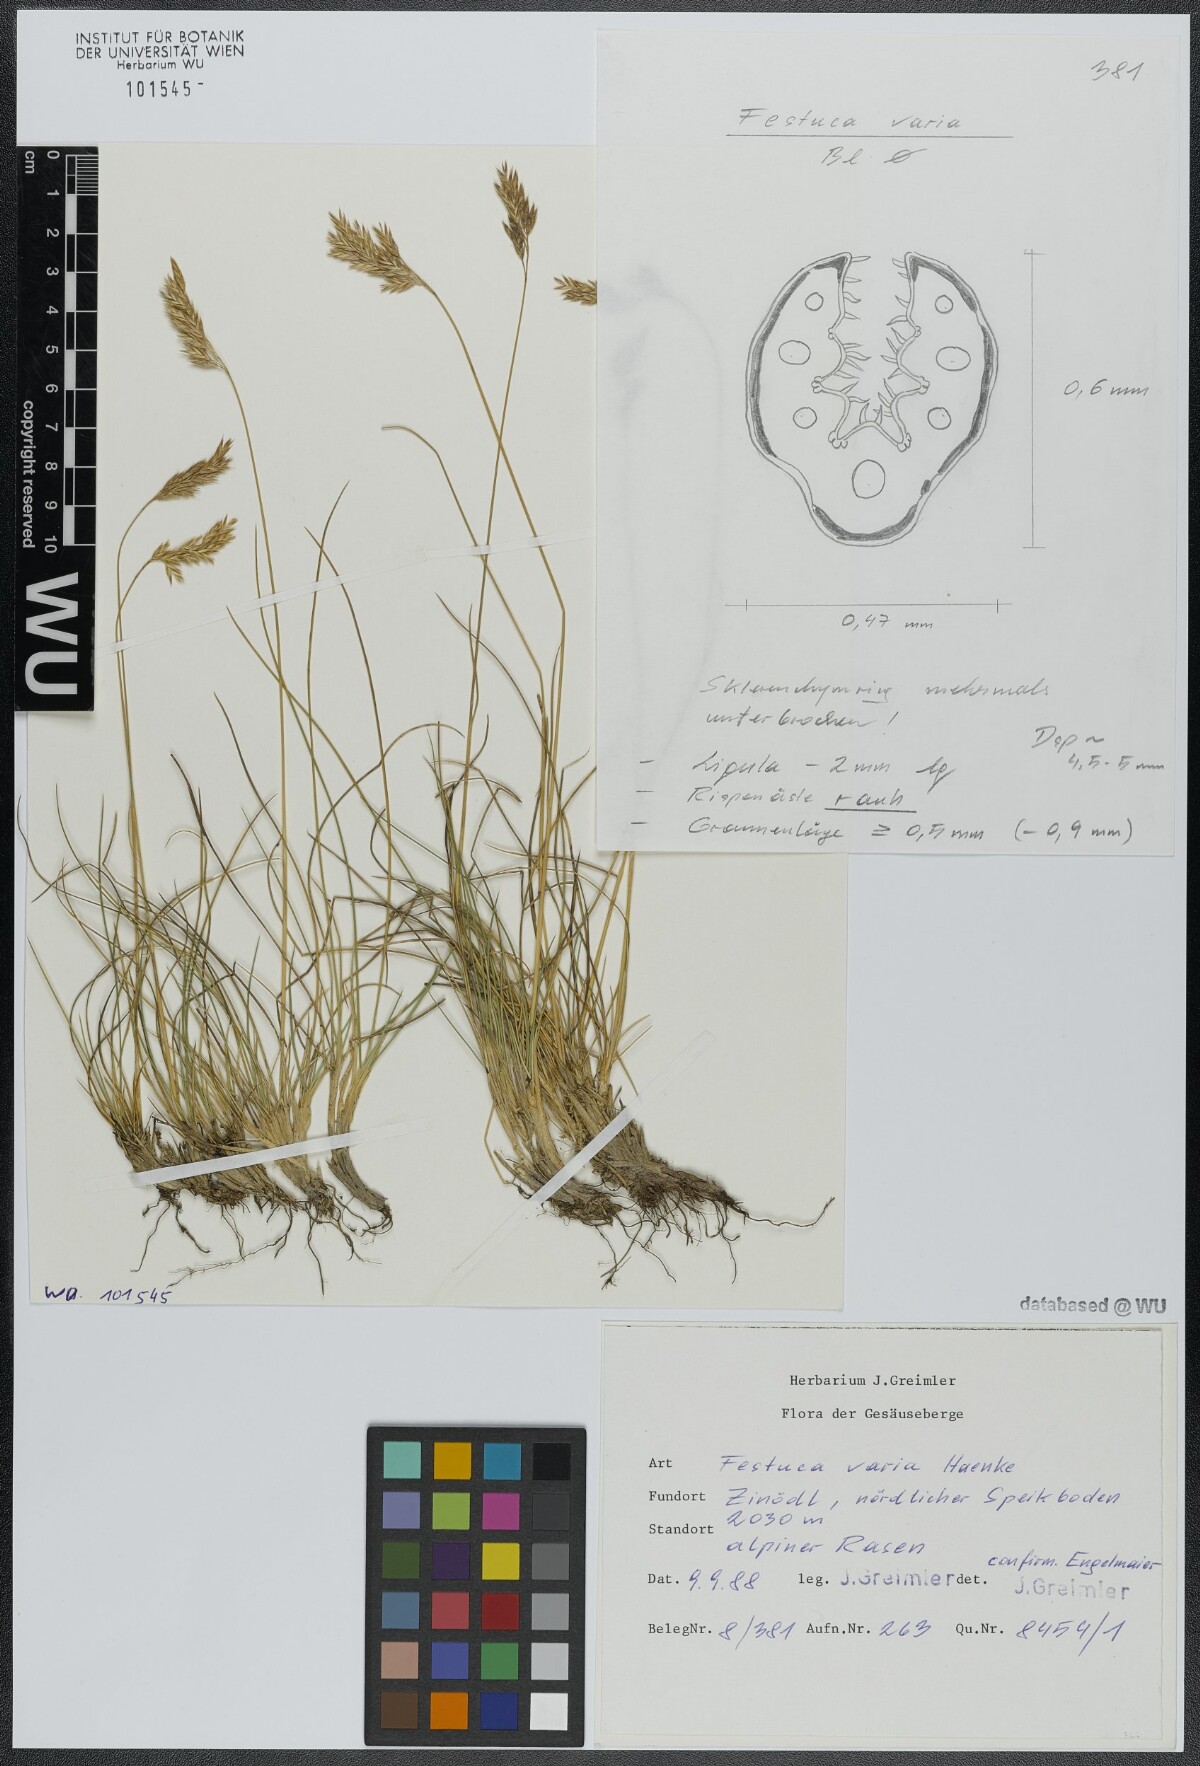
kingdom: Plantae
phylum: Tracheophyta
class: Liliopsida
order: Poales
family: Poaceae
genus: Festuca
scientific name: Festuca varia
